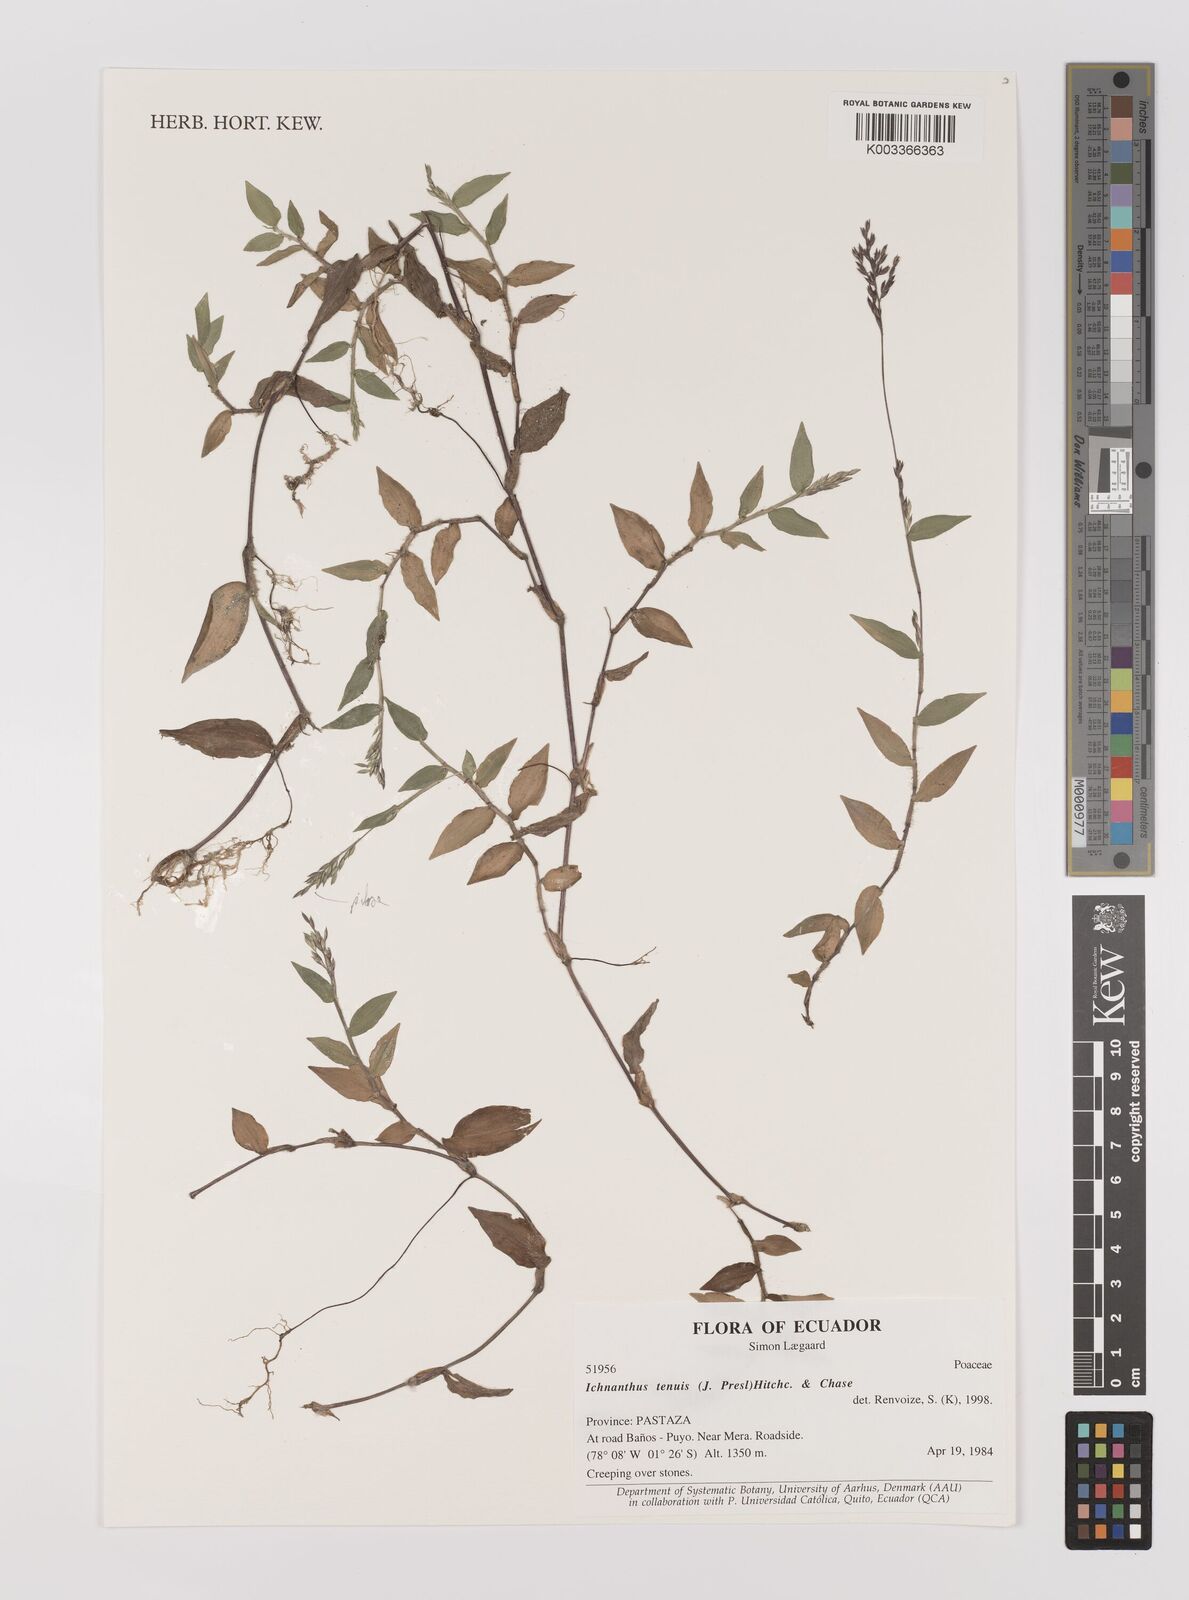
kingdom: Plantae
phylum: Tracheophyta
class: Liliopsida
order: Poales
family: Poaceae
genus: Ichnanthus
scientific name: Ichnanthus tenuis
